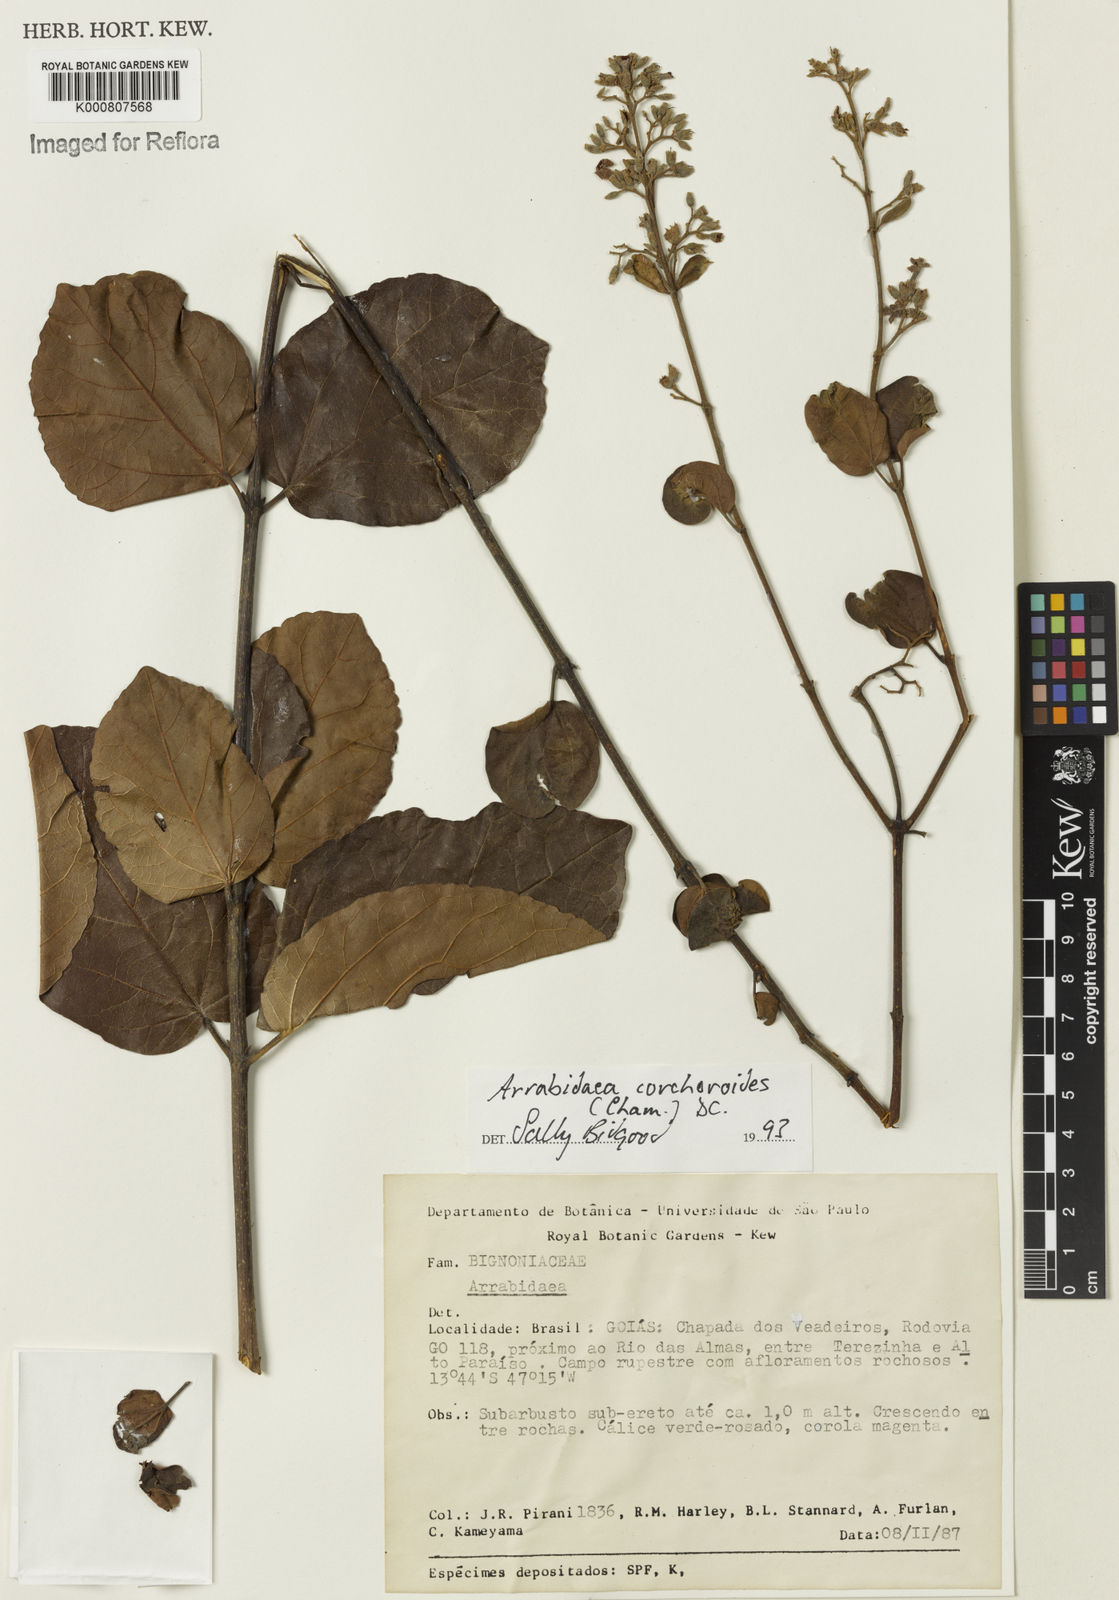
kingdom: Plantae
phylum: Tracheophyta
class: Magnoliopsida
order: Lamiales
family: Bignoniaceae
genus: Xylophragma
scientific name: Xylophragma corchoroides
